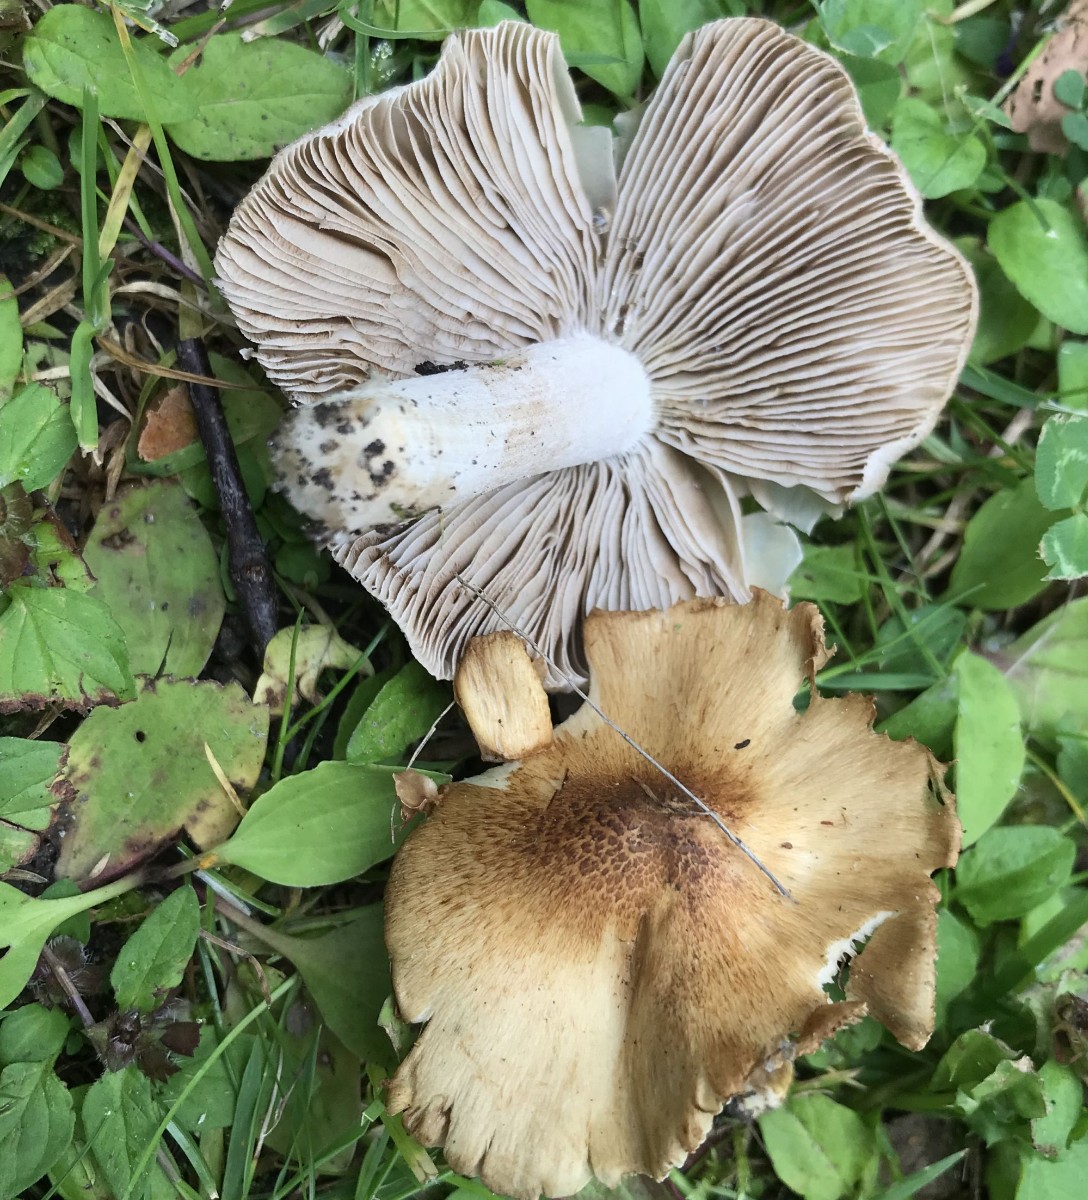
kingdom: Fungi
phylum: Basidiomycota
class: Agaricomycetes
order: Agaricales
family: Inocybaceae
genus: Pseudosperma
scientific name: Pseudosperma
